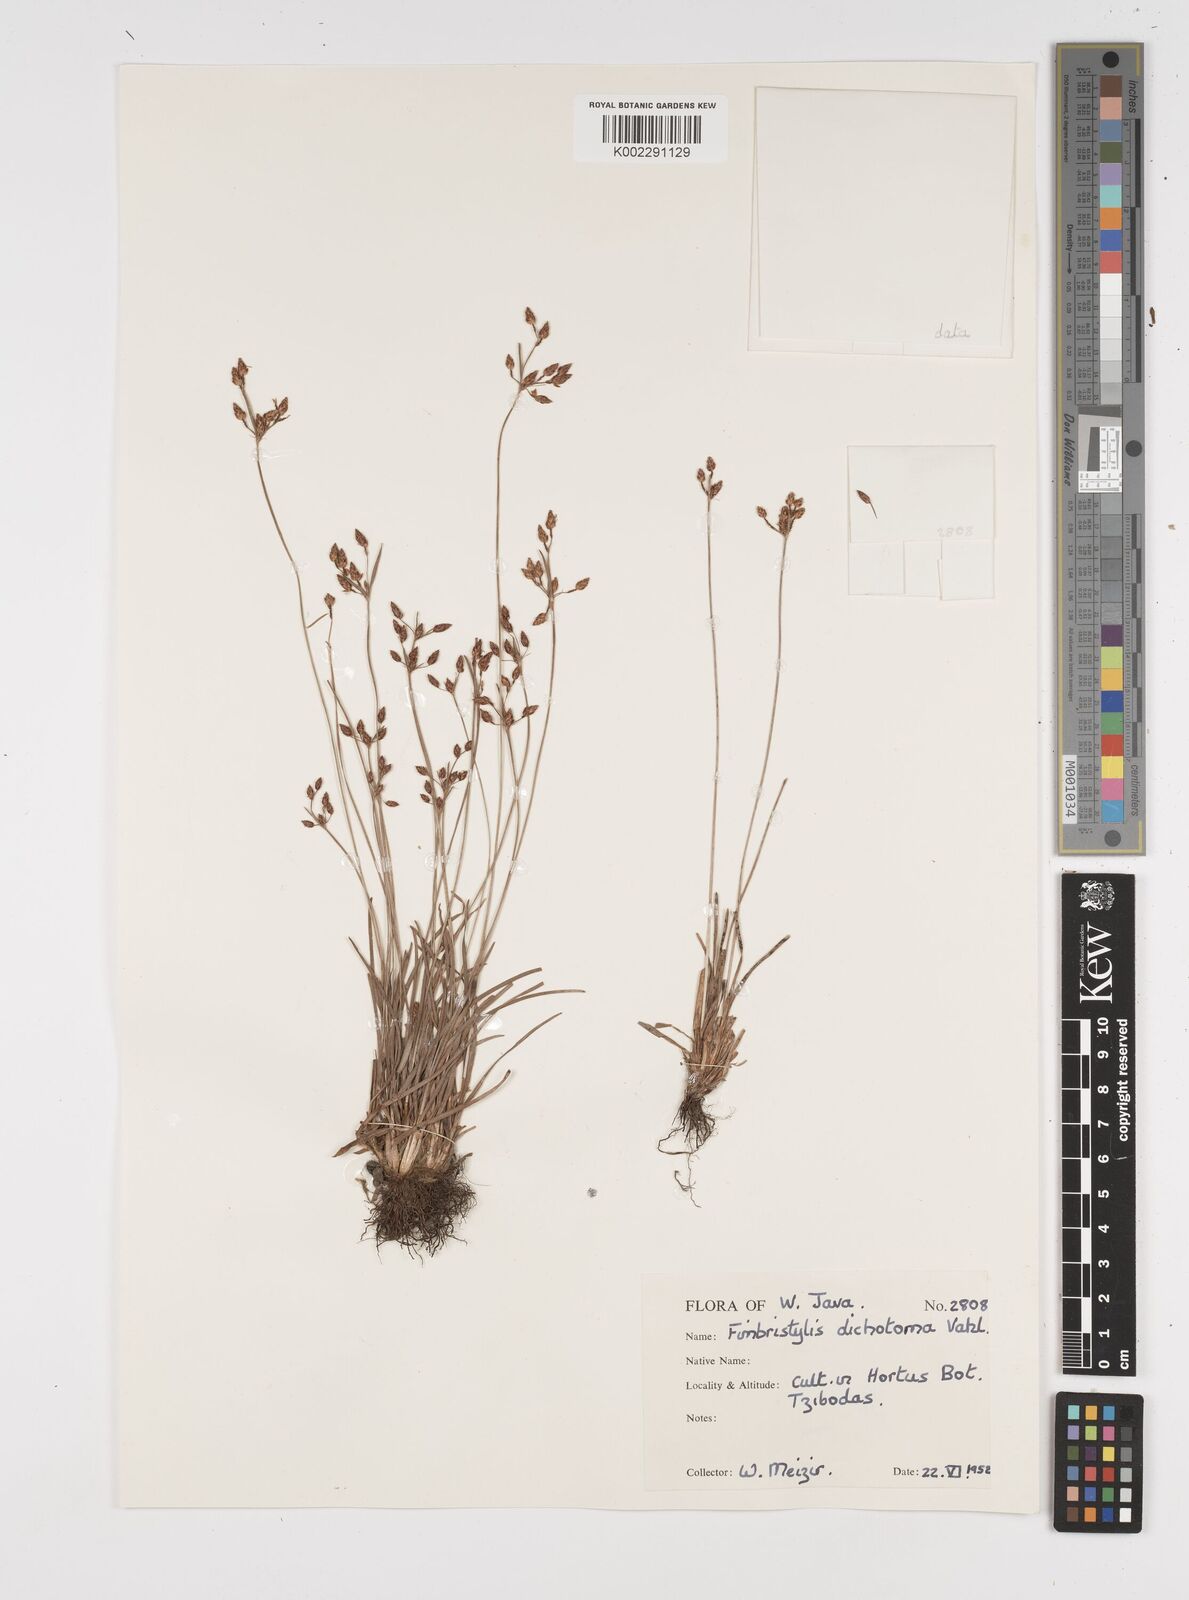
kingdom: Plantae
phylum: Tracheophyta
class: Liliopsida
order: Poales
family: Cyperaceae
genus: Fimbristylis
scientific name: Fimbristylis dichotoma
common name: Forked fimbry
